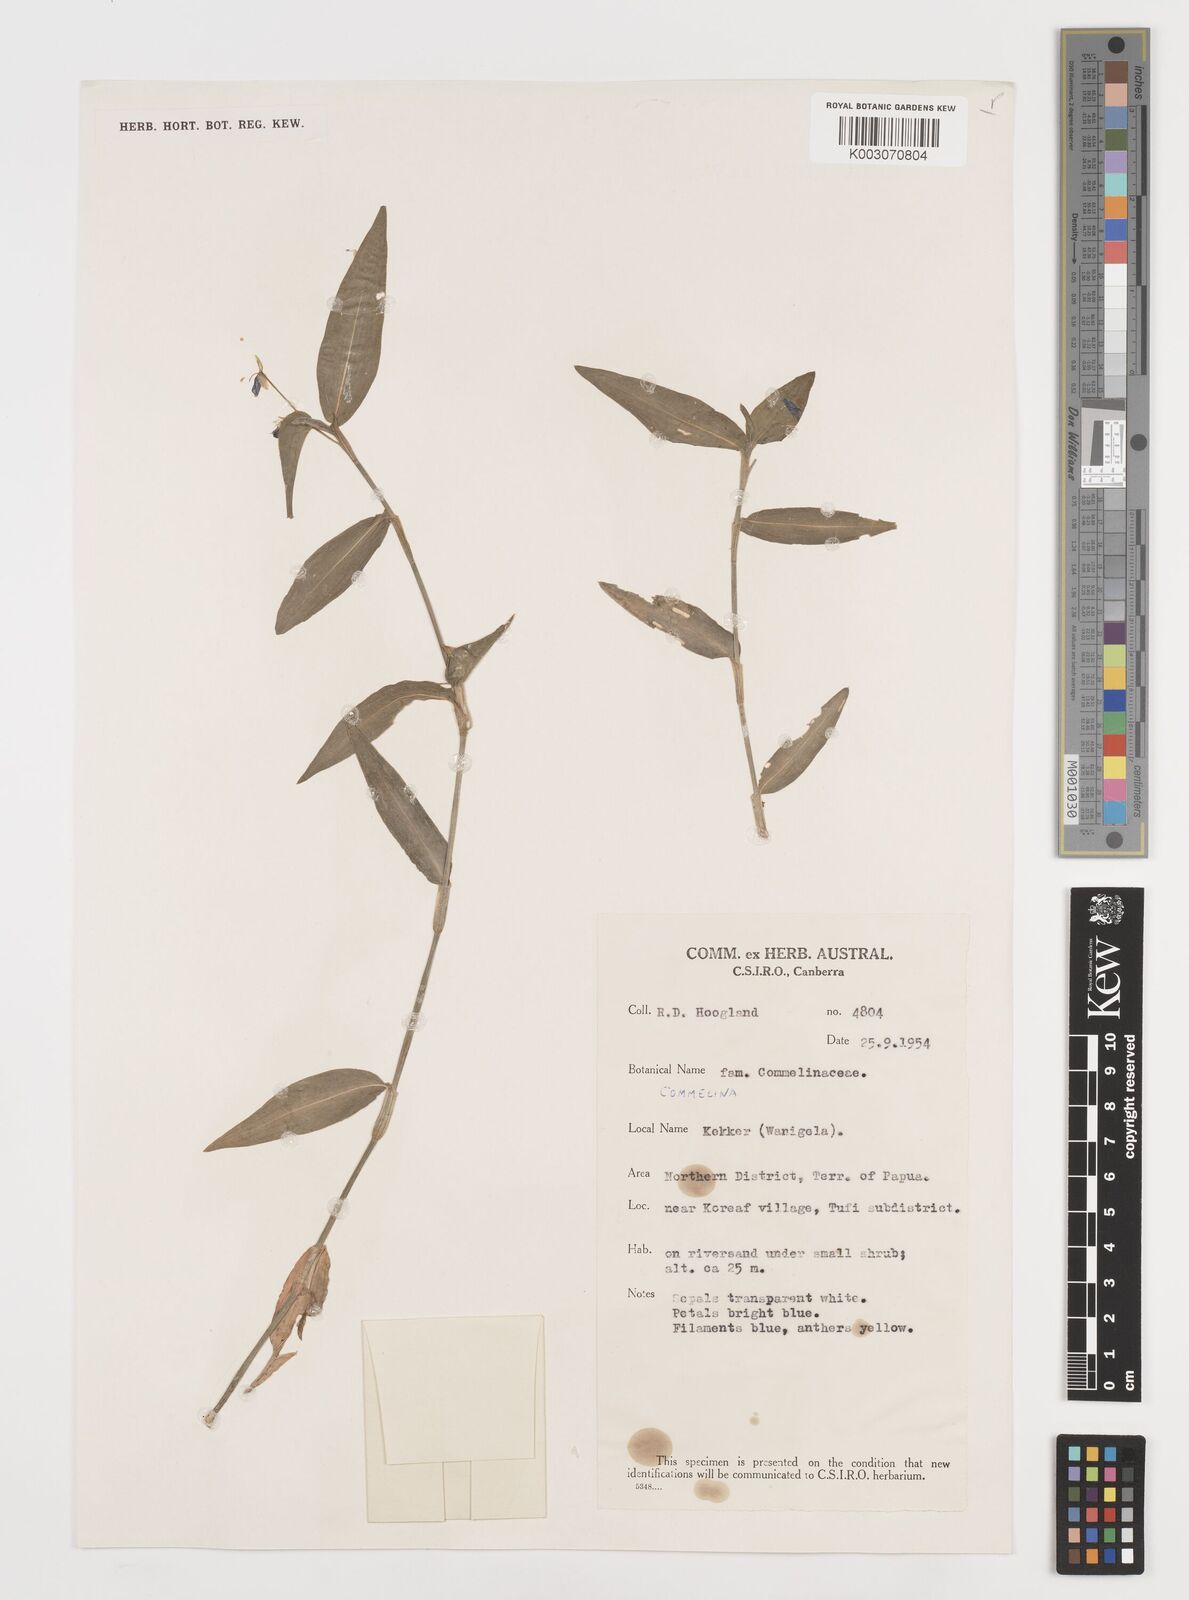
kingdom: Plantae
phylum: Tracheophyta
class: Liliopsida
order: Commelinales
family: Commelinaceae
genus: Commelina
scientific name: Commelina
